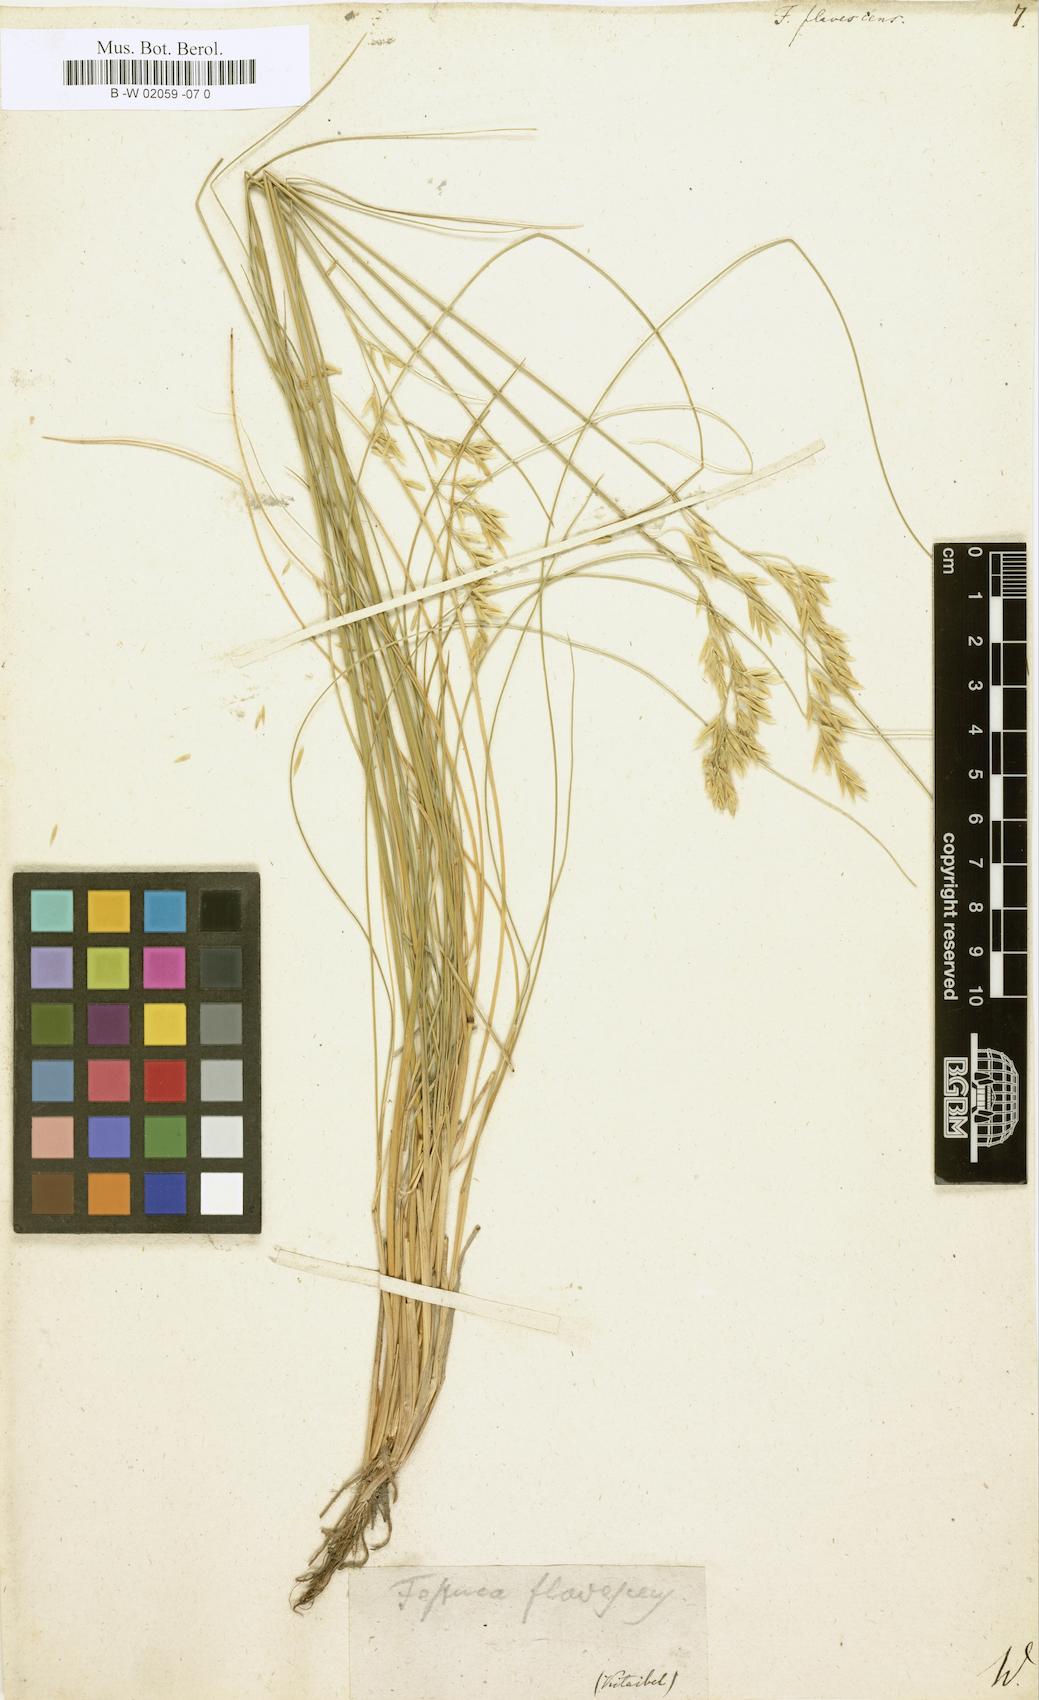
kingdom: Plantae
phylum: Tracheophyta
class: Liliopsida
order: Poales
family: Poaceae
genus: Festuca
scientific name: Festuca flavescens
